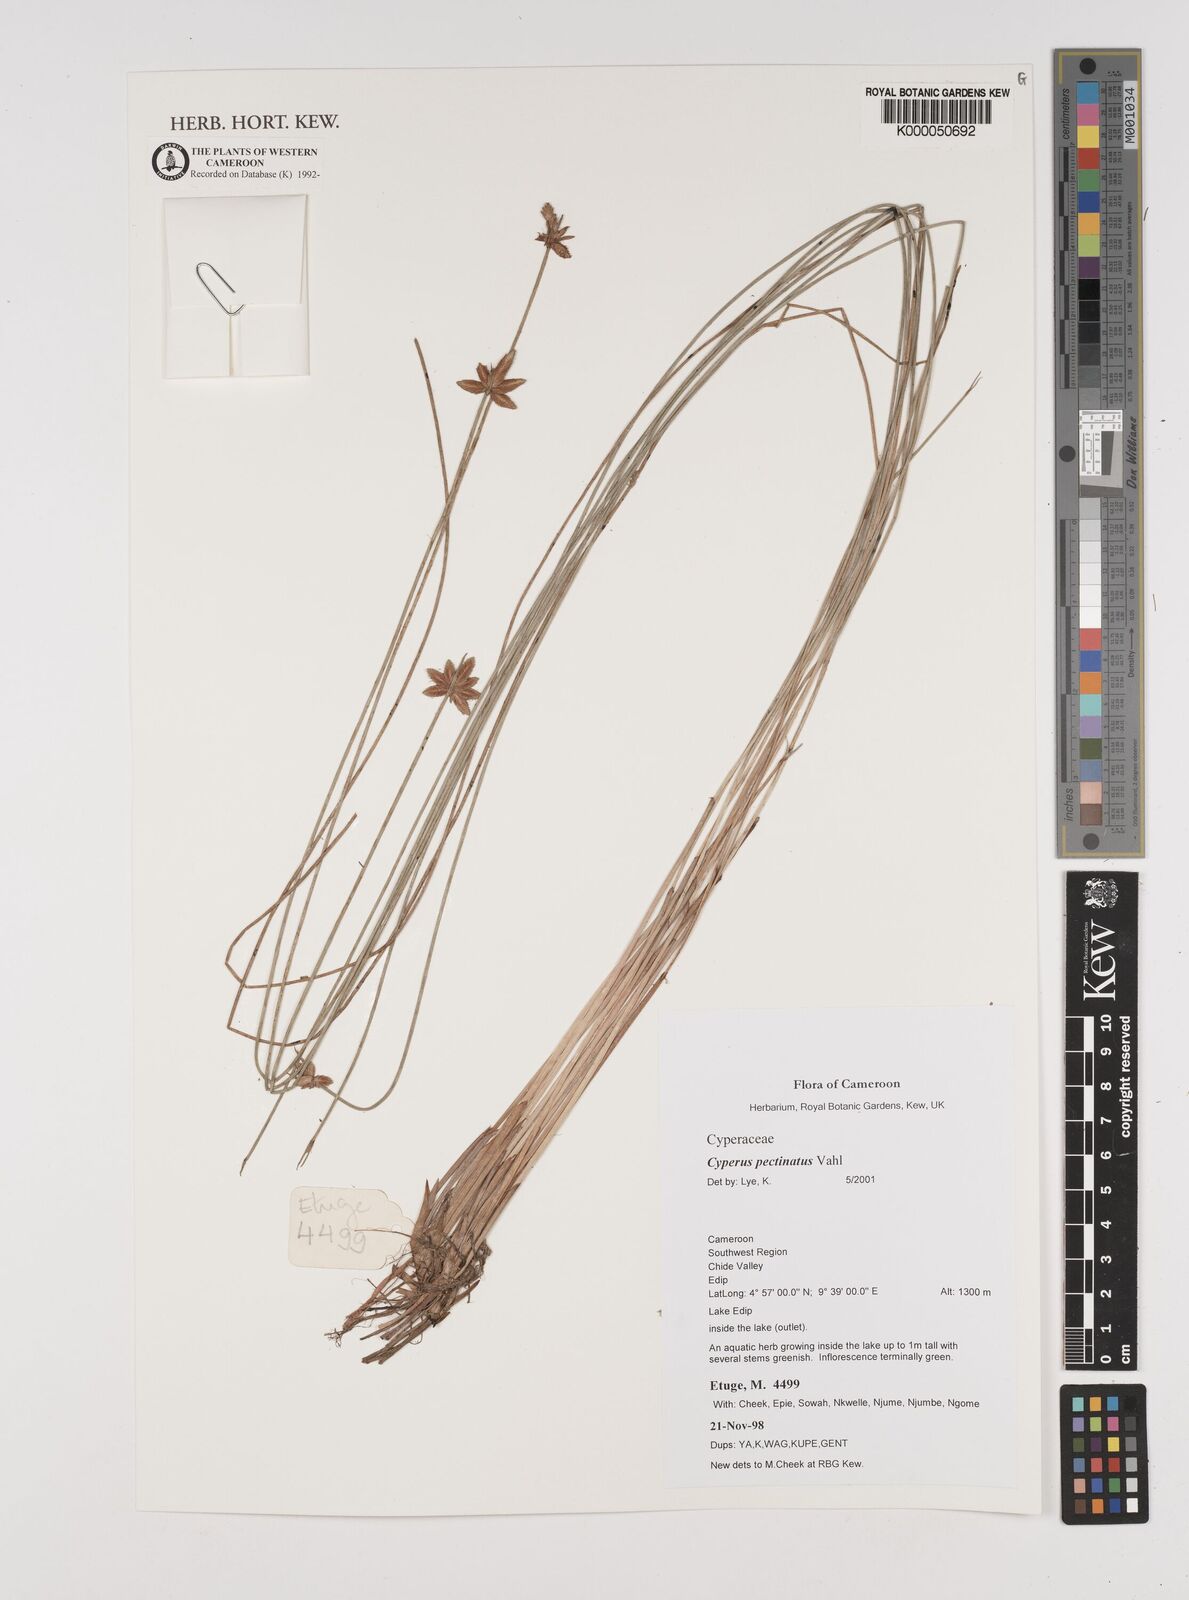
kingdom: Plantae
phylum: Tracheophyta
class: Liliopsida
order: Poales
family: Cyperaceae
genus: Cyperus
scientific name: Cyperus pectinatus
